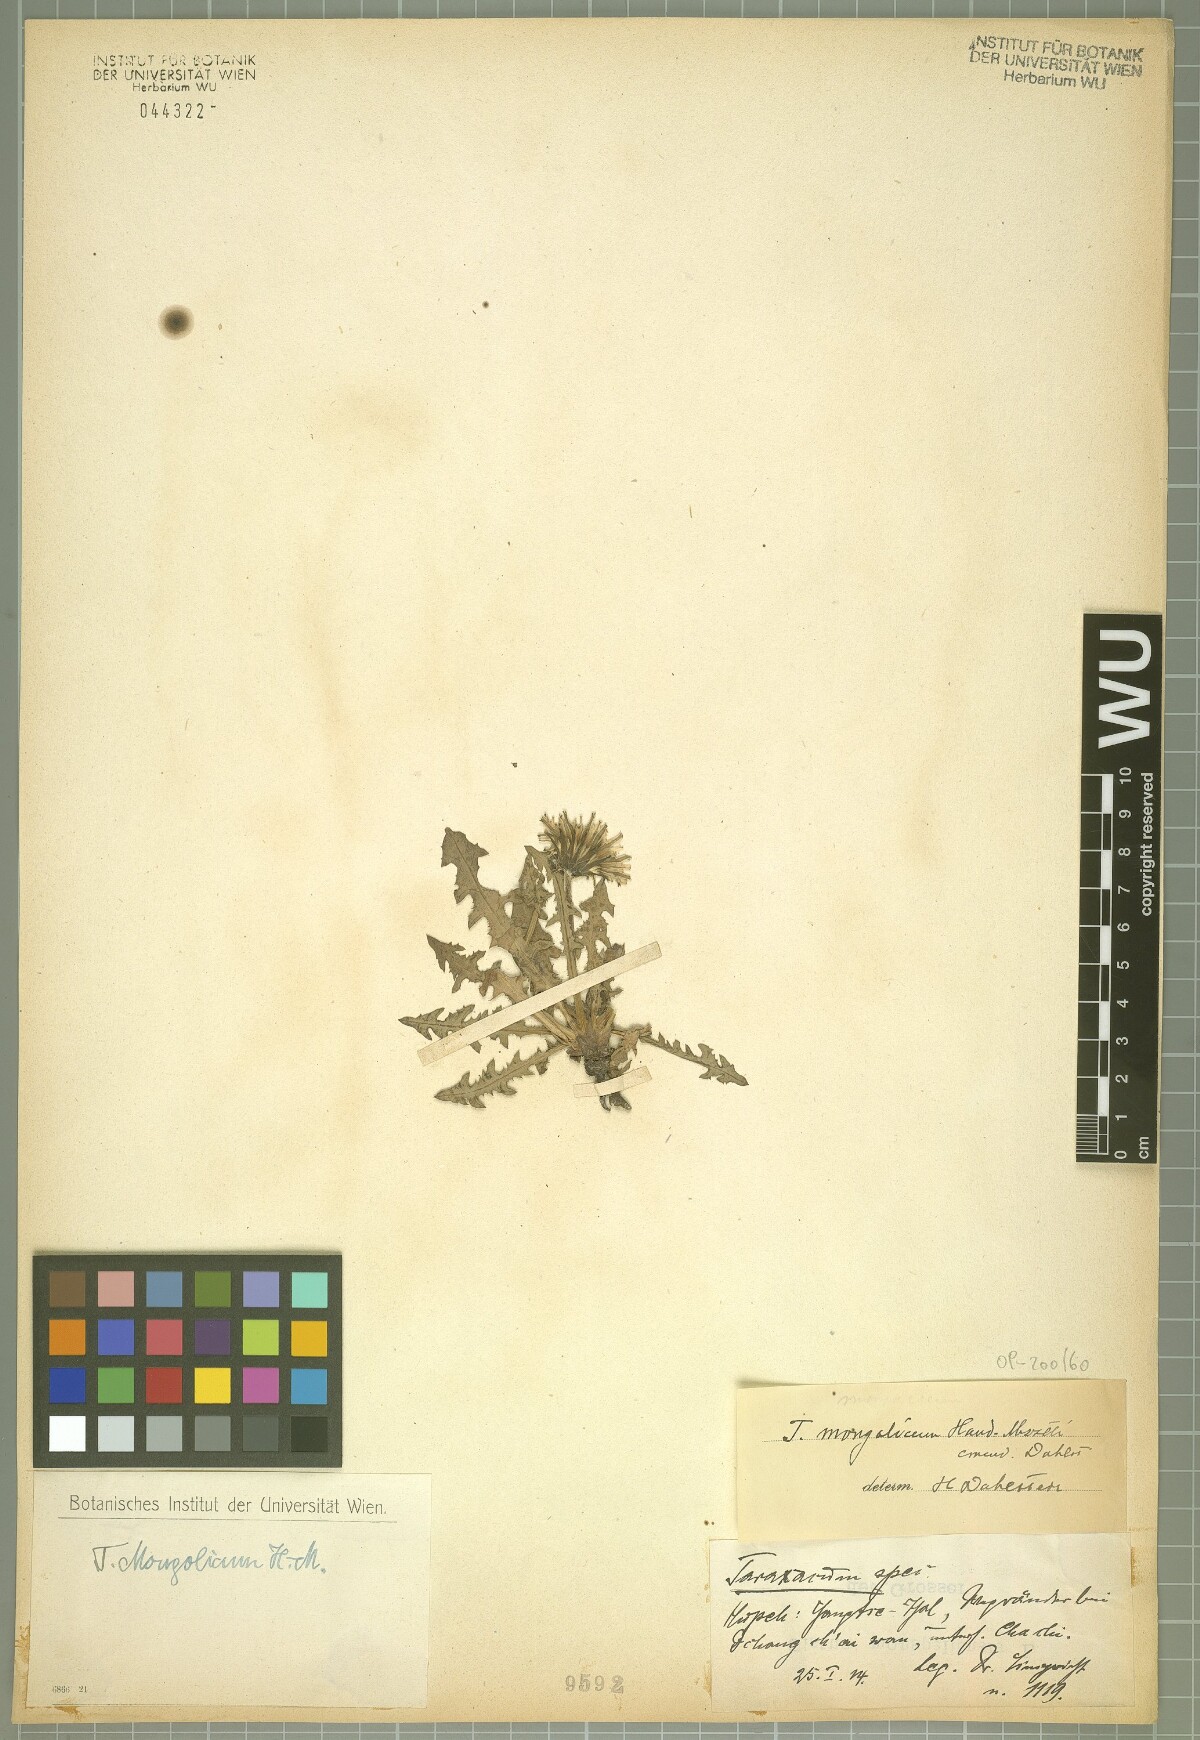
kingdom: Plantae
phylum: Tracheophyta
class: Magnoliopsida
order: Asterales
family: Asteraceae
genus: Taraxacum
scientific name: Taraxacum mongolicum
